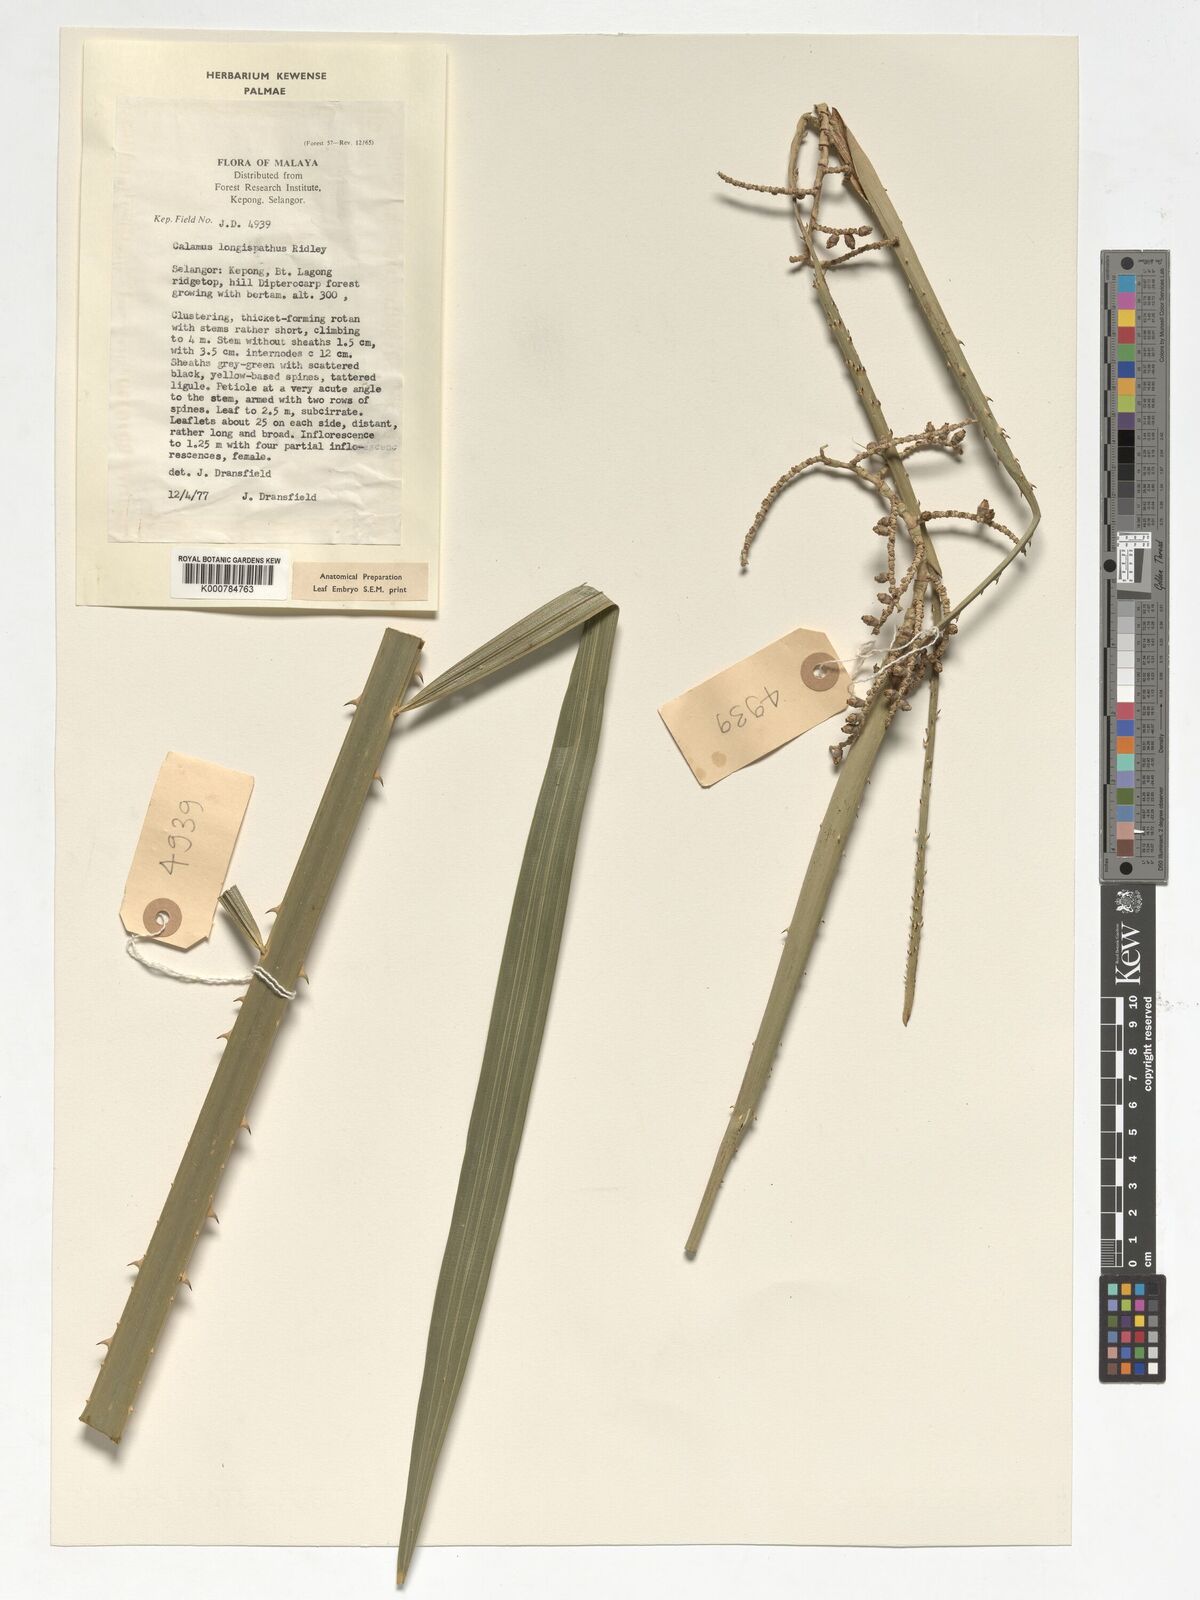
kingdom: Plantae
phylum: Tracheophyta
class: Liliopsida
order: Arecales
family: Arecaceae
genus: Calamus
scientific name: Calamus longispatha
